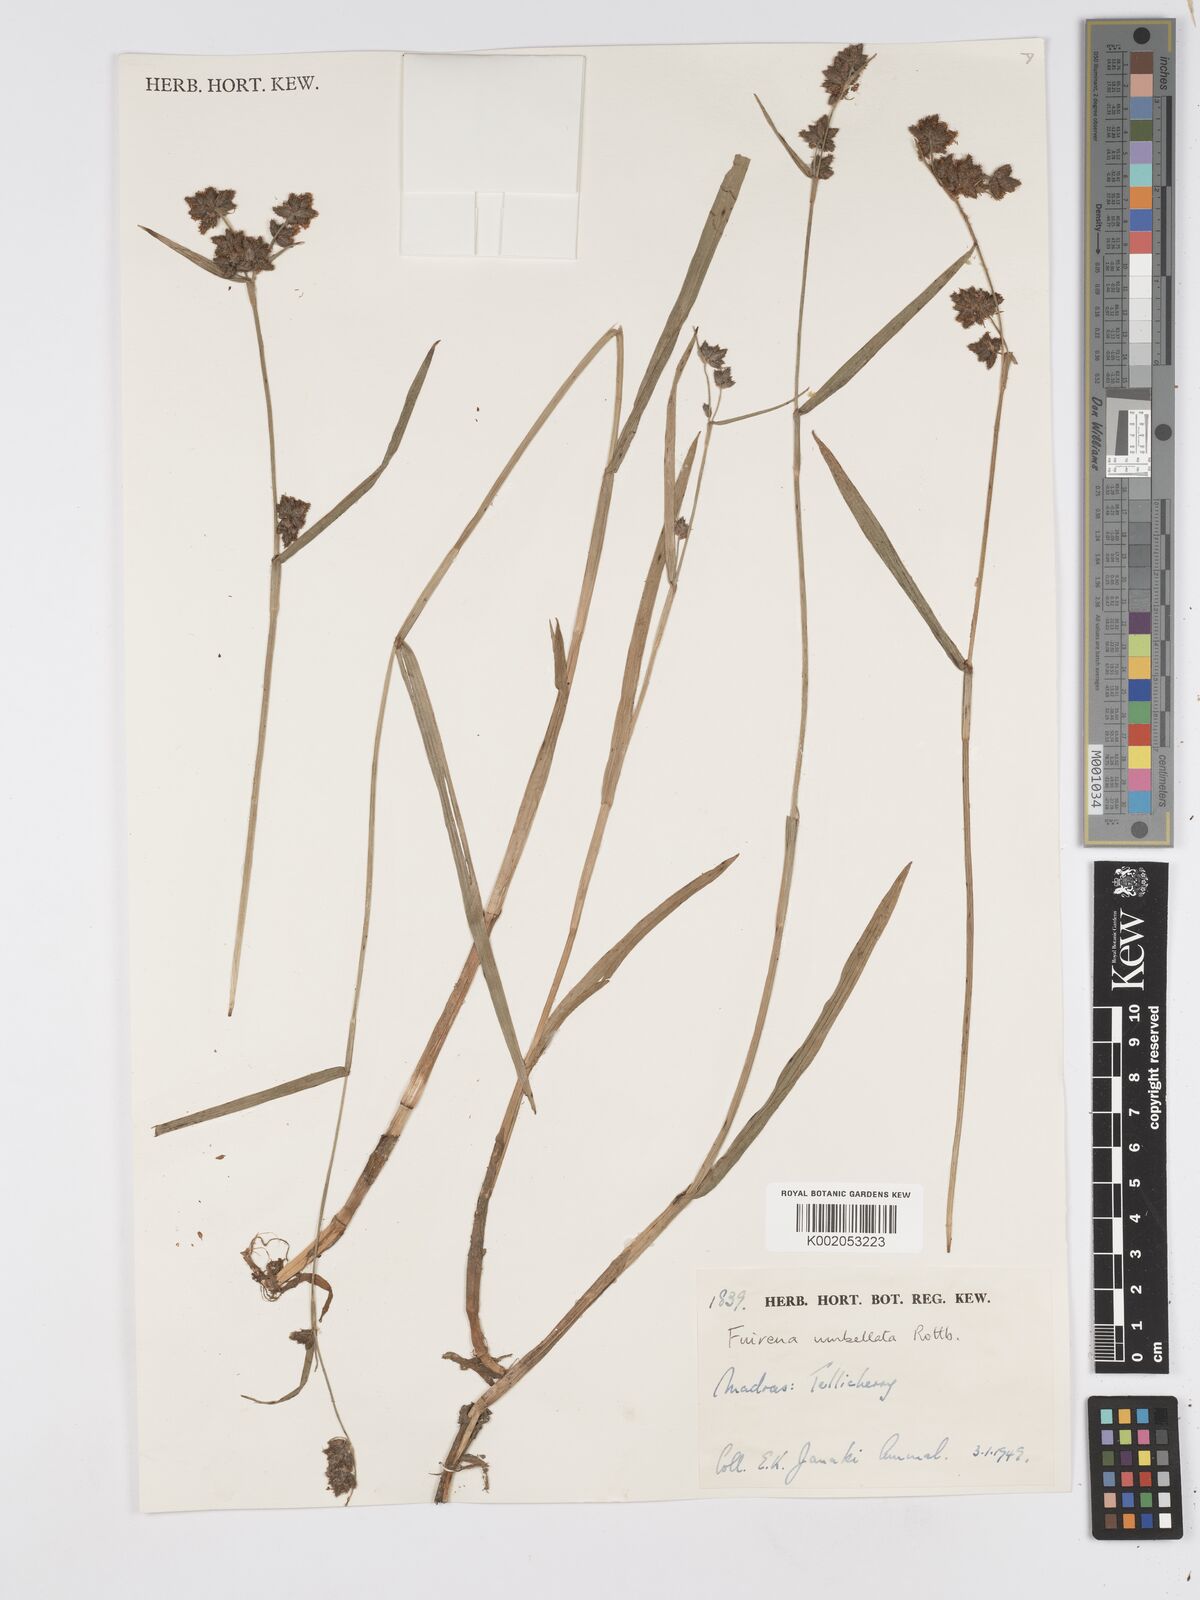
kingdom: Plantae
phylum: Tracheophyta
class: Liliopsida
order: Poales
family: Cyperaceae
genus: Fuirena
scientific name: Fuirena umbellata
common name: Yefen
